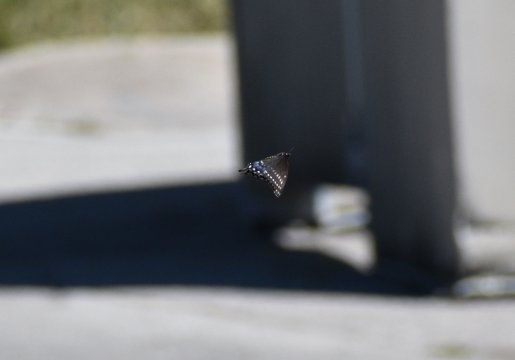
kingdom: Animalia
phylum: Arthropoda
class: Insecta
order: Lepidoptera
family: Papilionidae
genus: Papilio
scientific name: Papilio polyxenes
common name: Black Swallowtail
